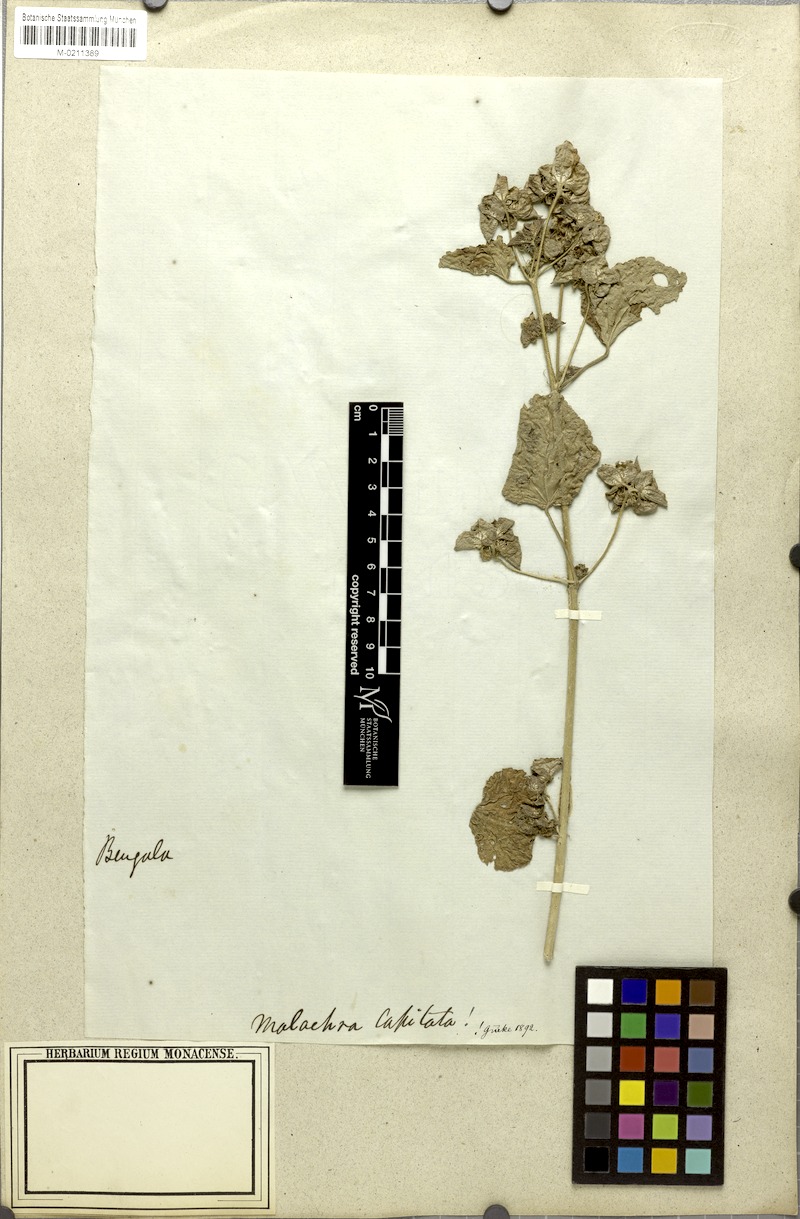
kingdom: Plantae
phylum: Tracheophyta
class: Magnoliopsida
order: Malvales
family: Malvaceae
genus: Malachra
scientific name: Malachra capitata
